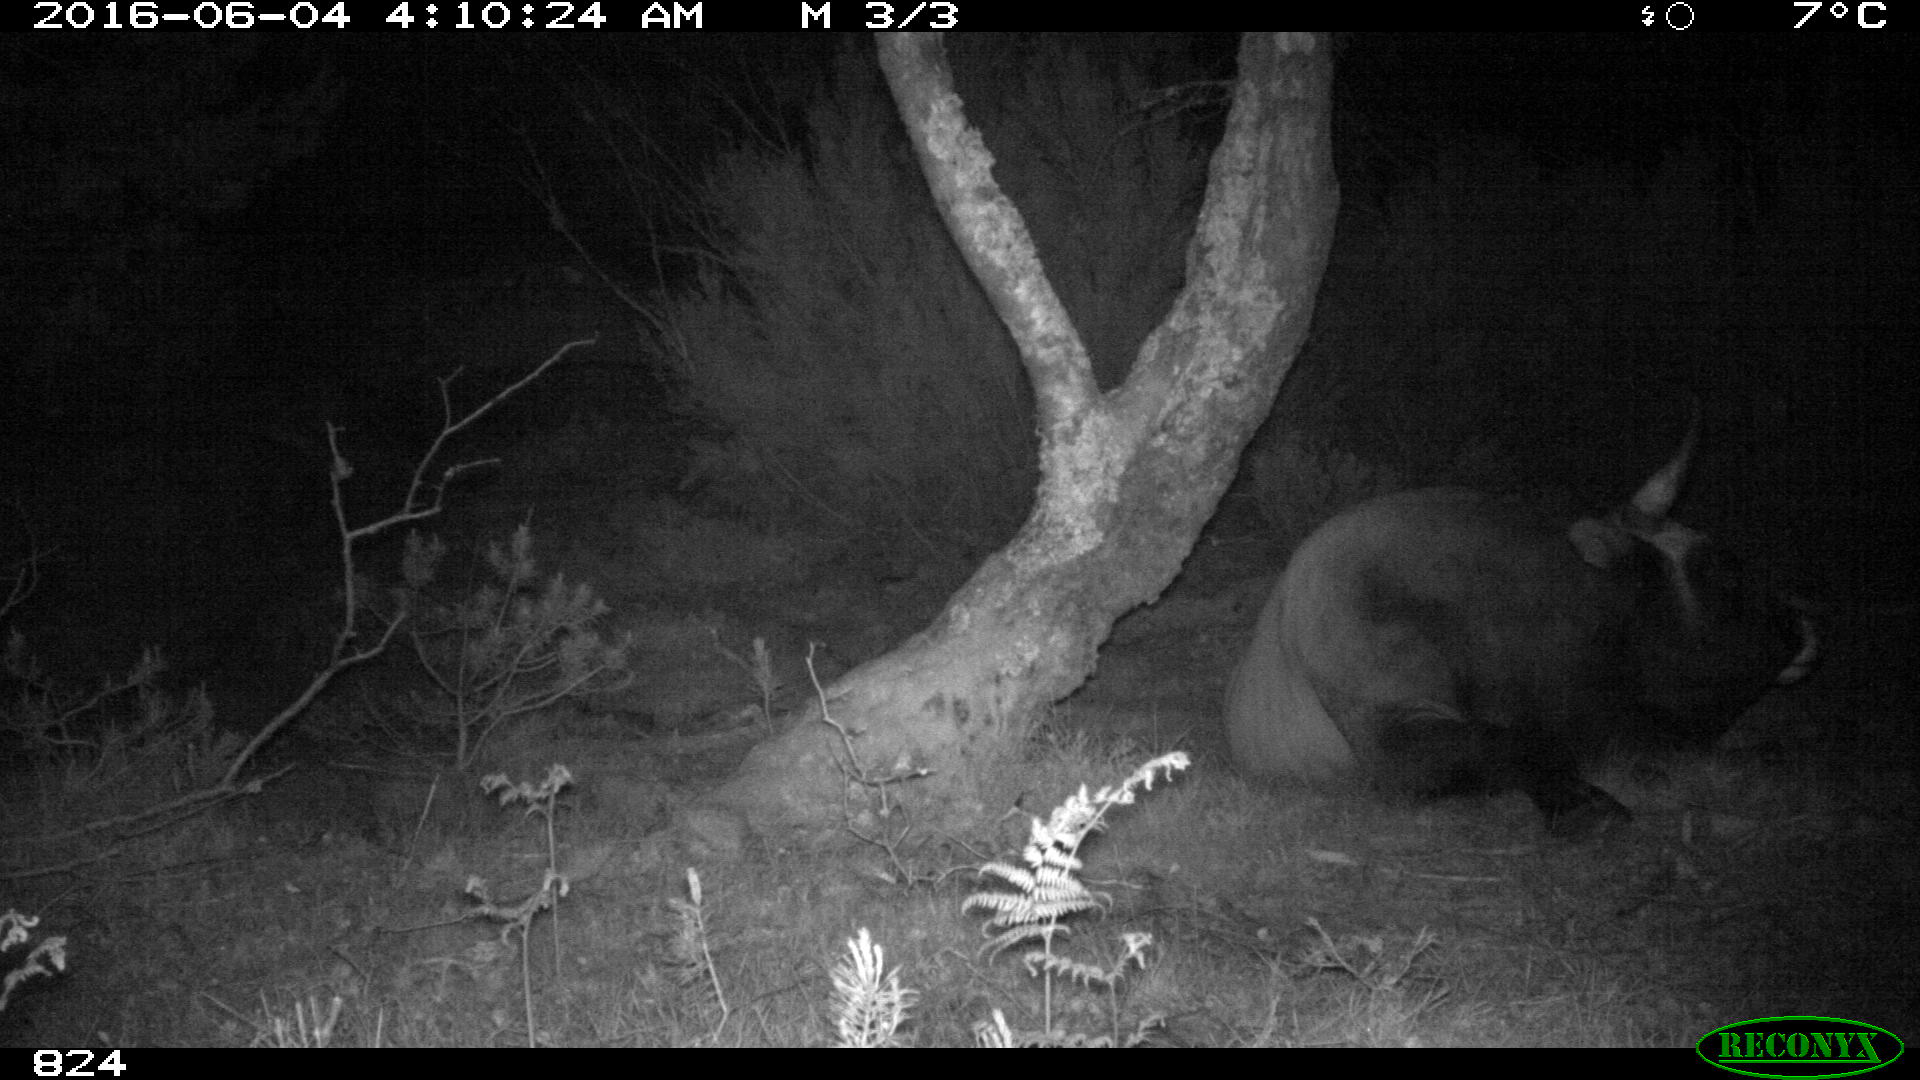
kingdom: Animalia
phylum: Chordata
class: Mammalia
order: Artiodactyla
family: Bovidae
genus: Bos
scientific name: Bos taurus
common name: Domesticated cattle
